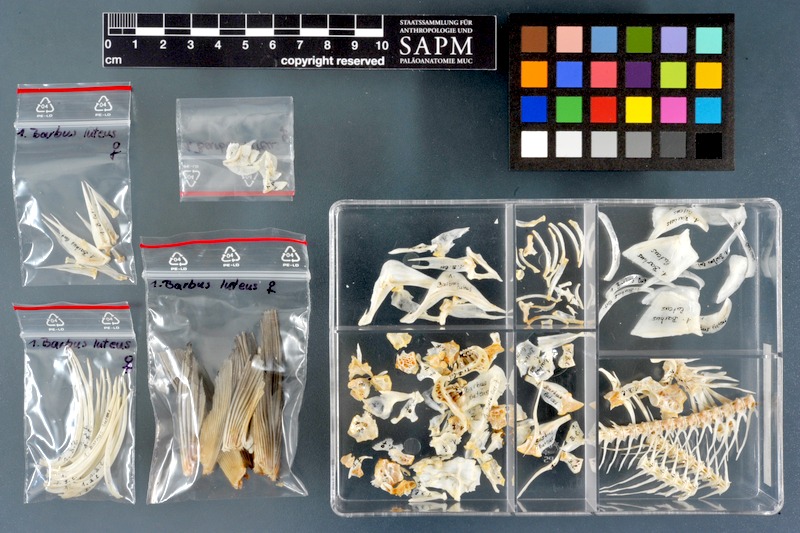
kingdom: Animalia
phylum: Chordata
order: Cypriniformes
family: Cyprinidae
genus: Carasobarbus
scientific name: Carasobarbus luteus
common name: Mesopotamian himri
